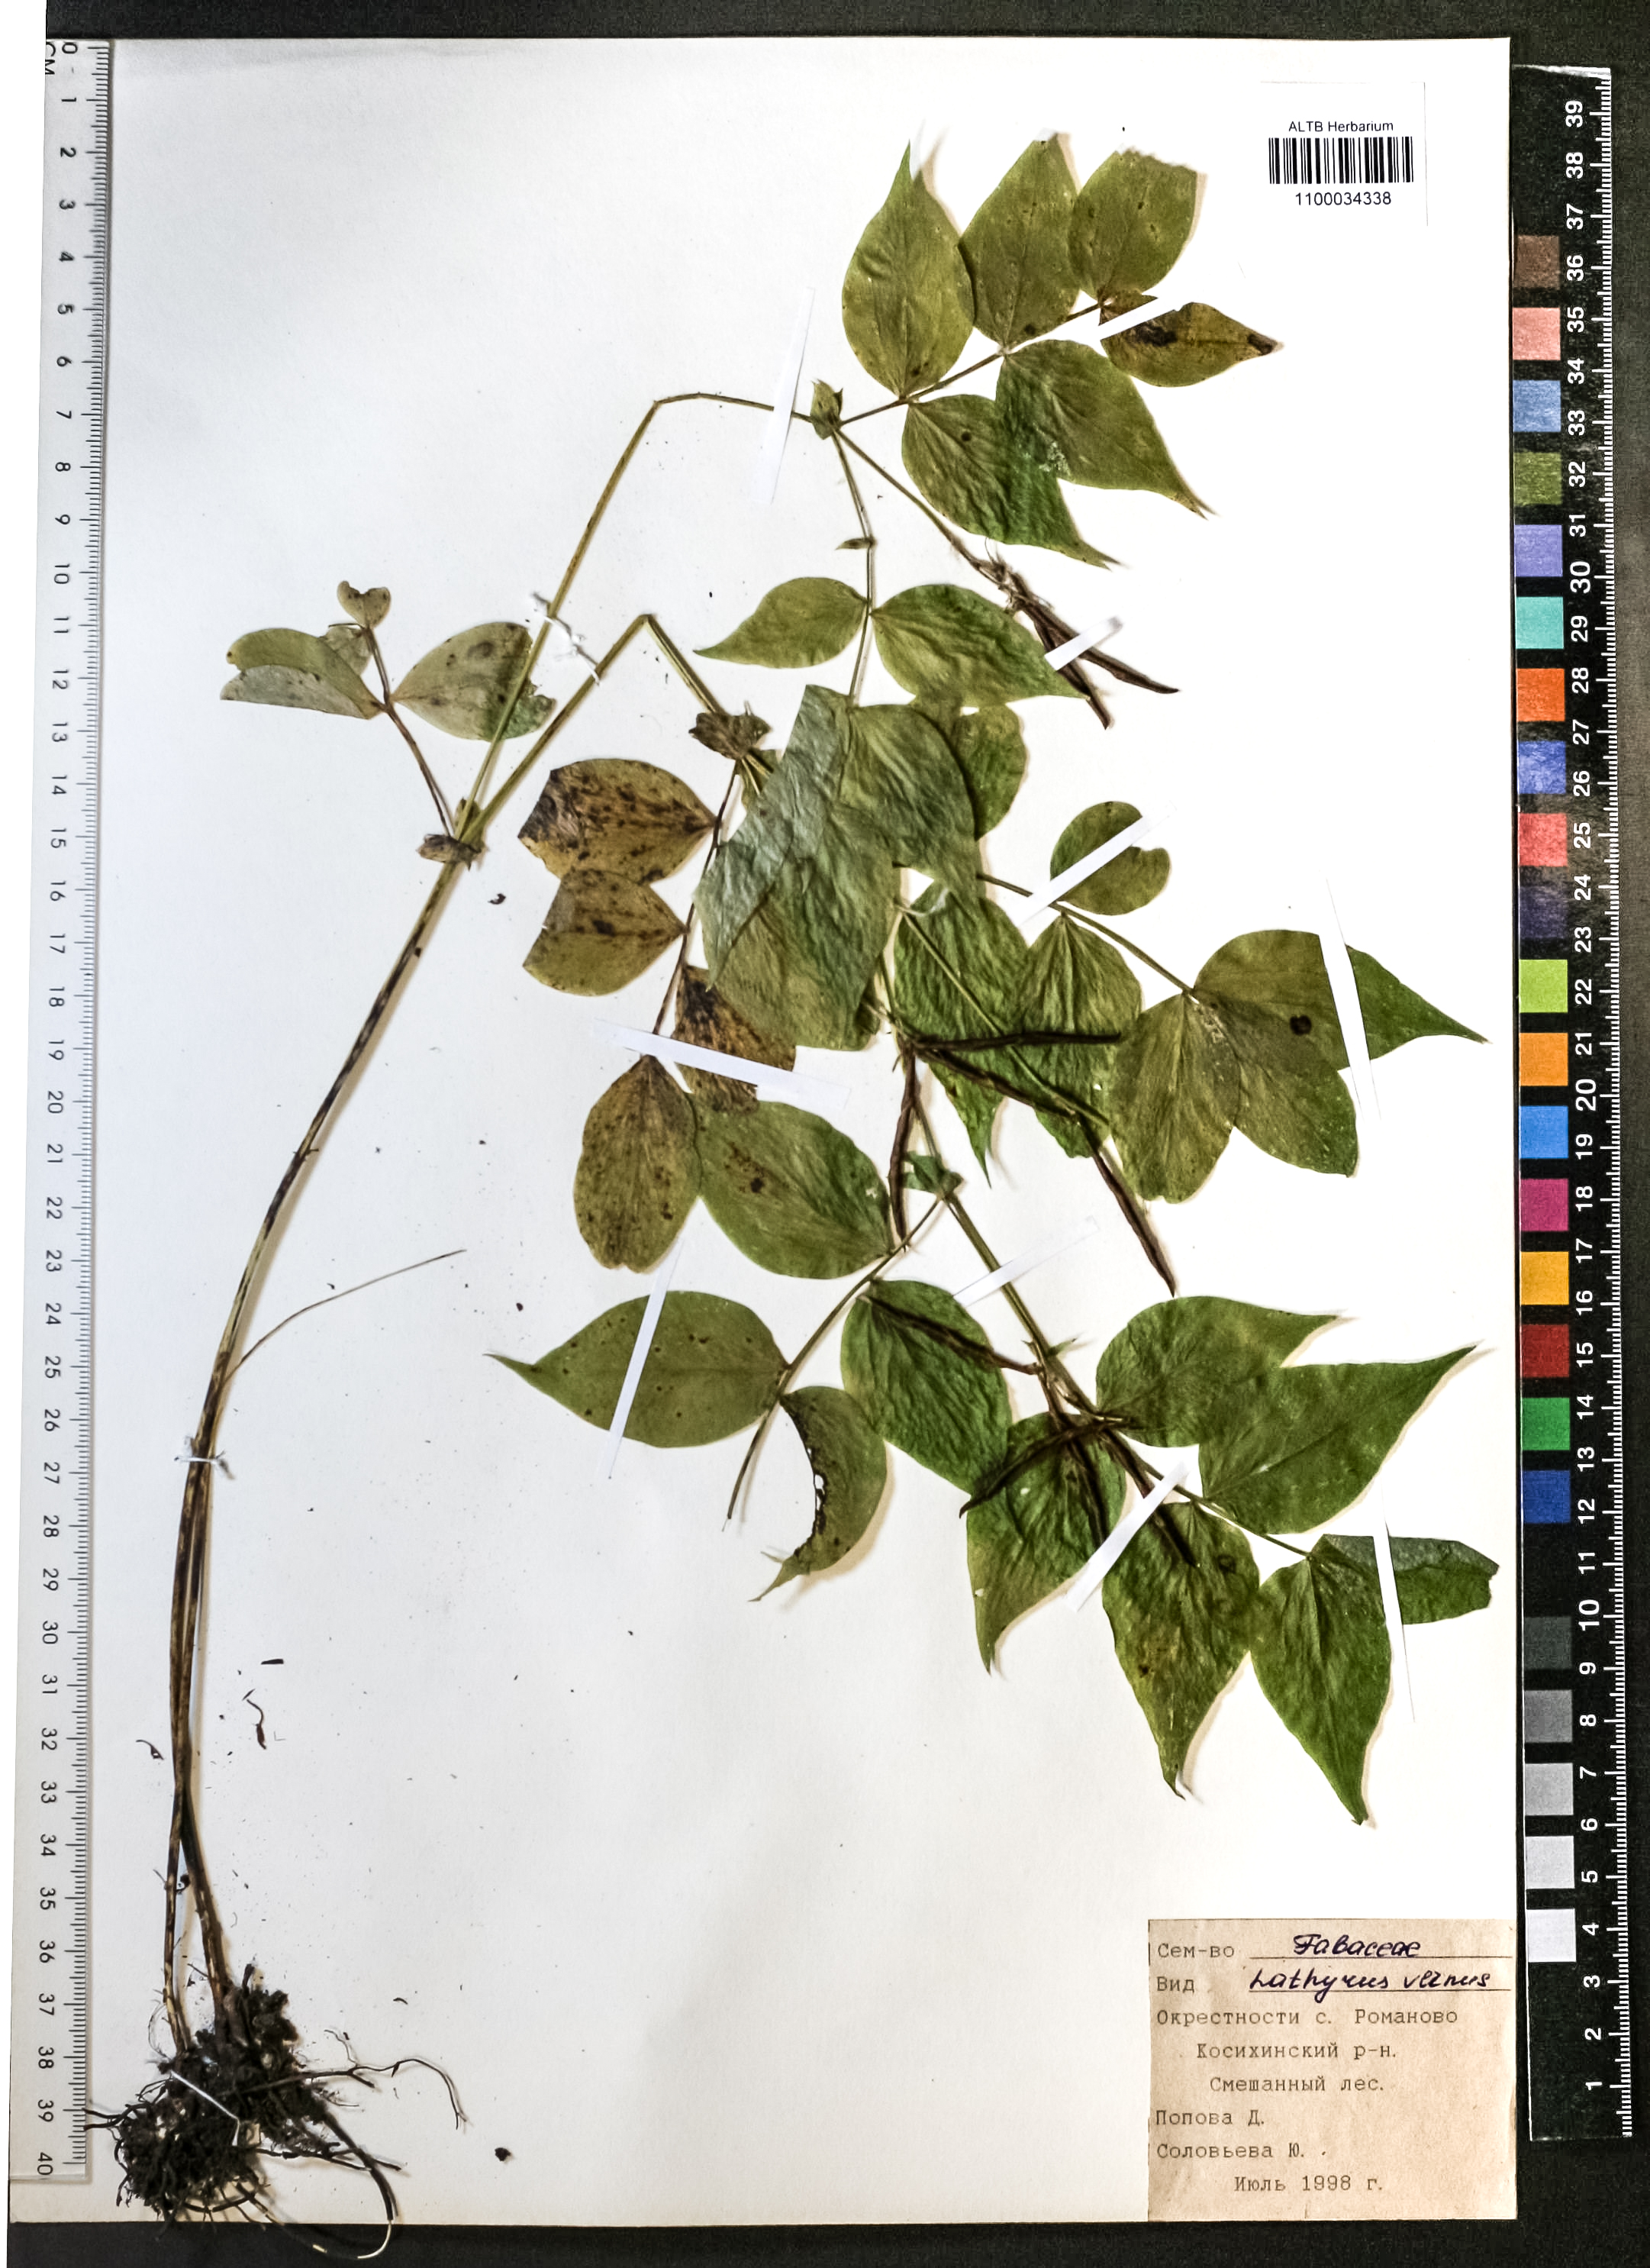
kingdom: Plantae
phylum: Tracheophyta
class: Magnoliopsida
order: Fabales
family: Fabaceae
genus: Lathyrus
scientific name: Lathyrus vernus
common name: Spring pea
